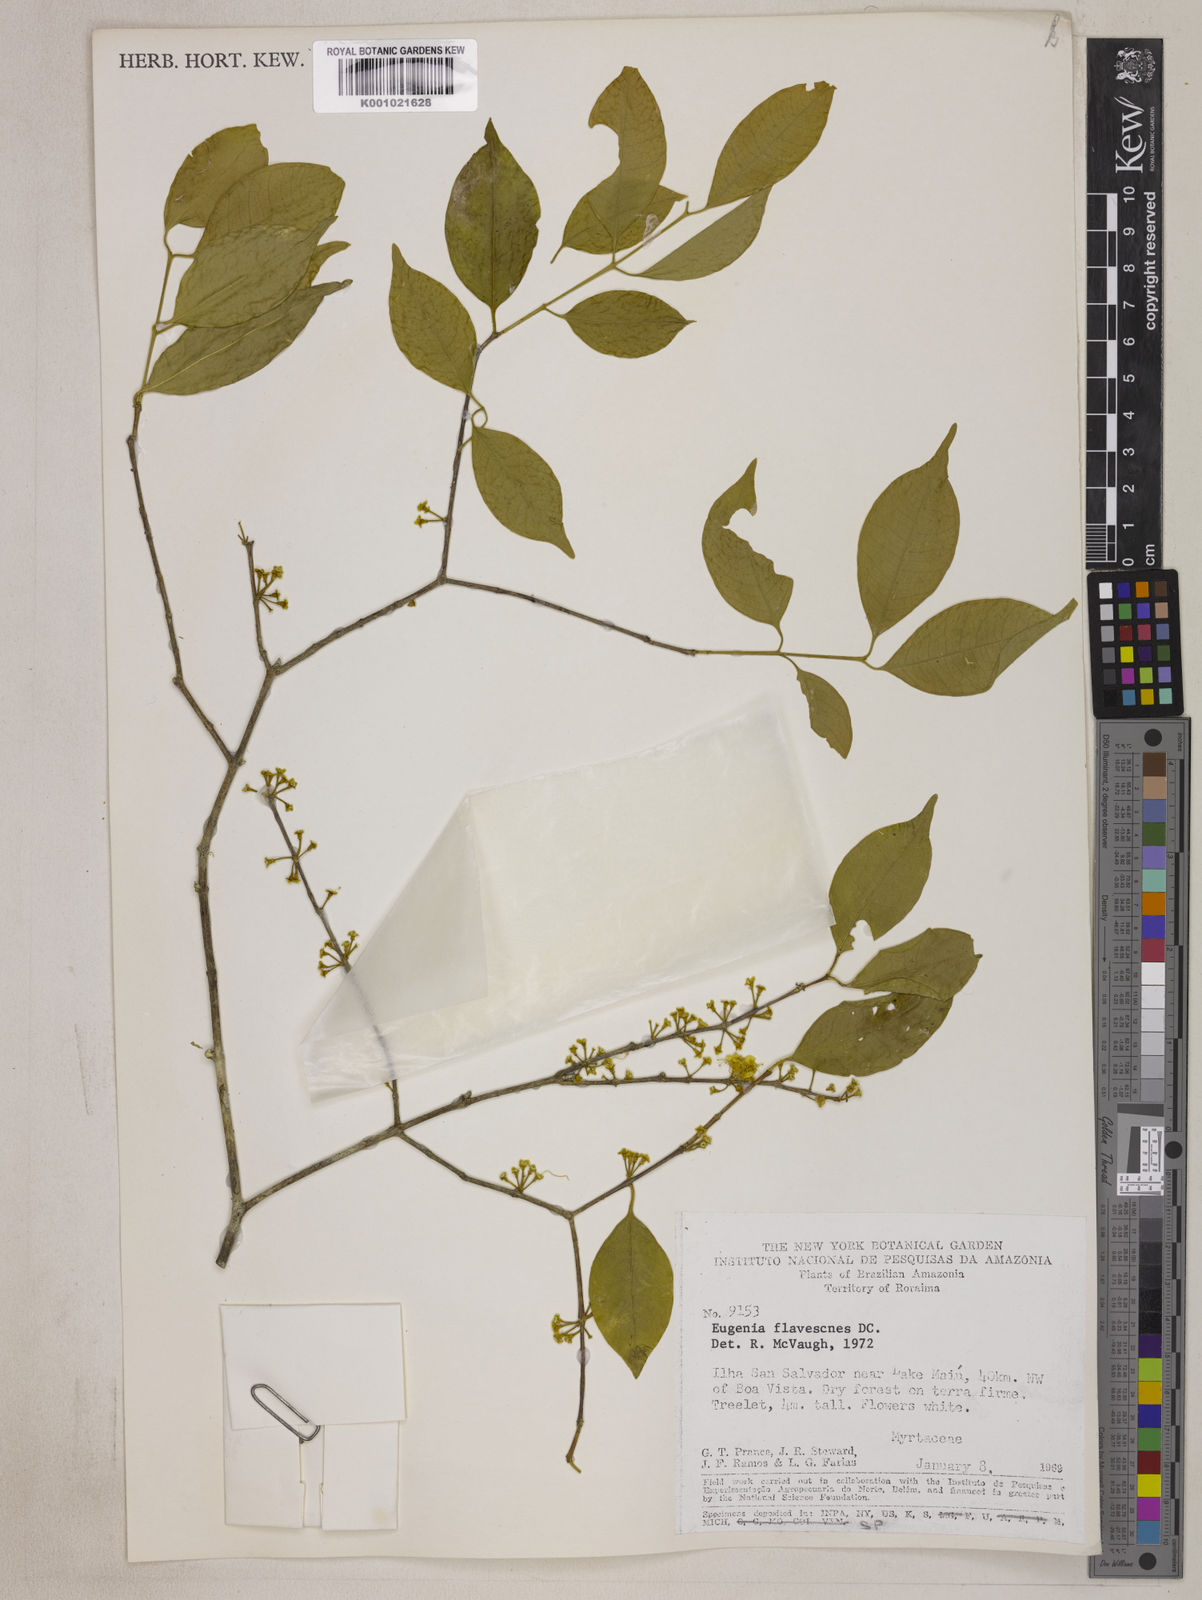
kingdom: Plantae
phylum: Tracheophyta
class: Magnoliopsida
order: Myrtales
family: Myrtaceae
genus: Eugenia
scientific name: Eugenia flavescens
